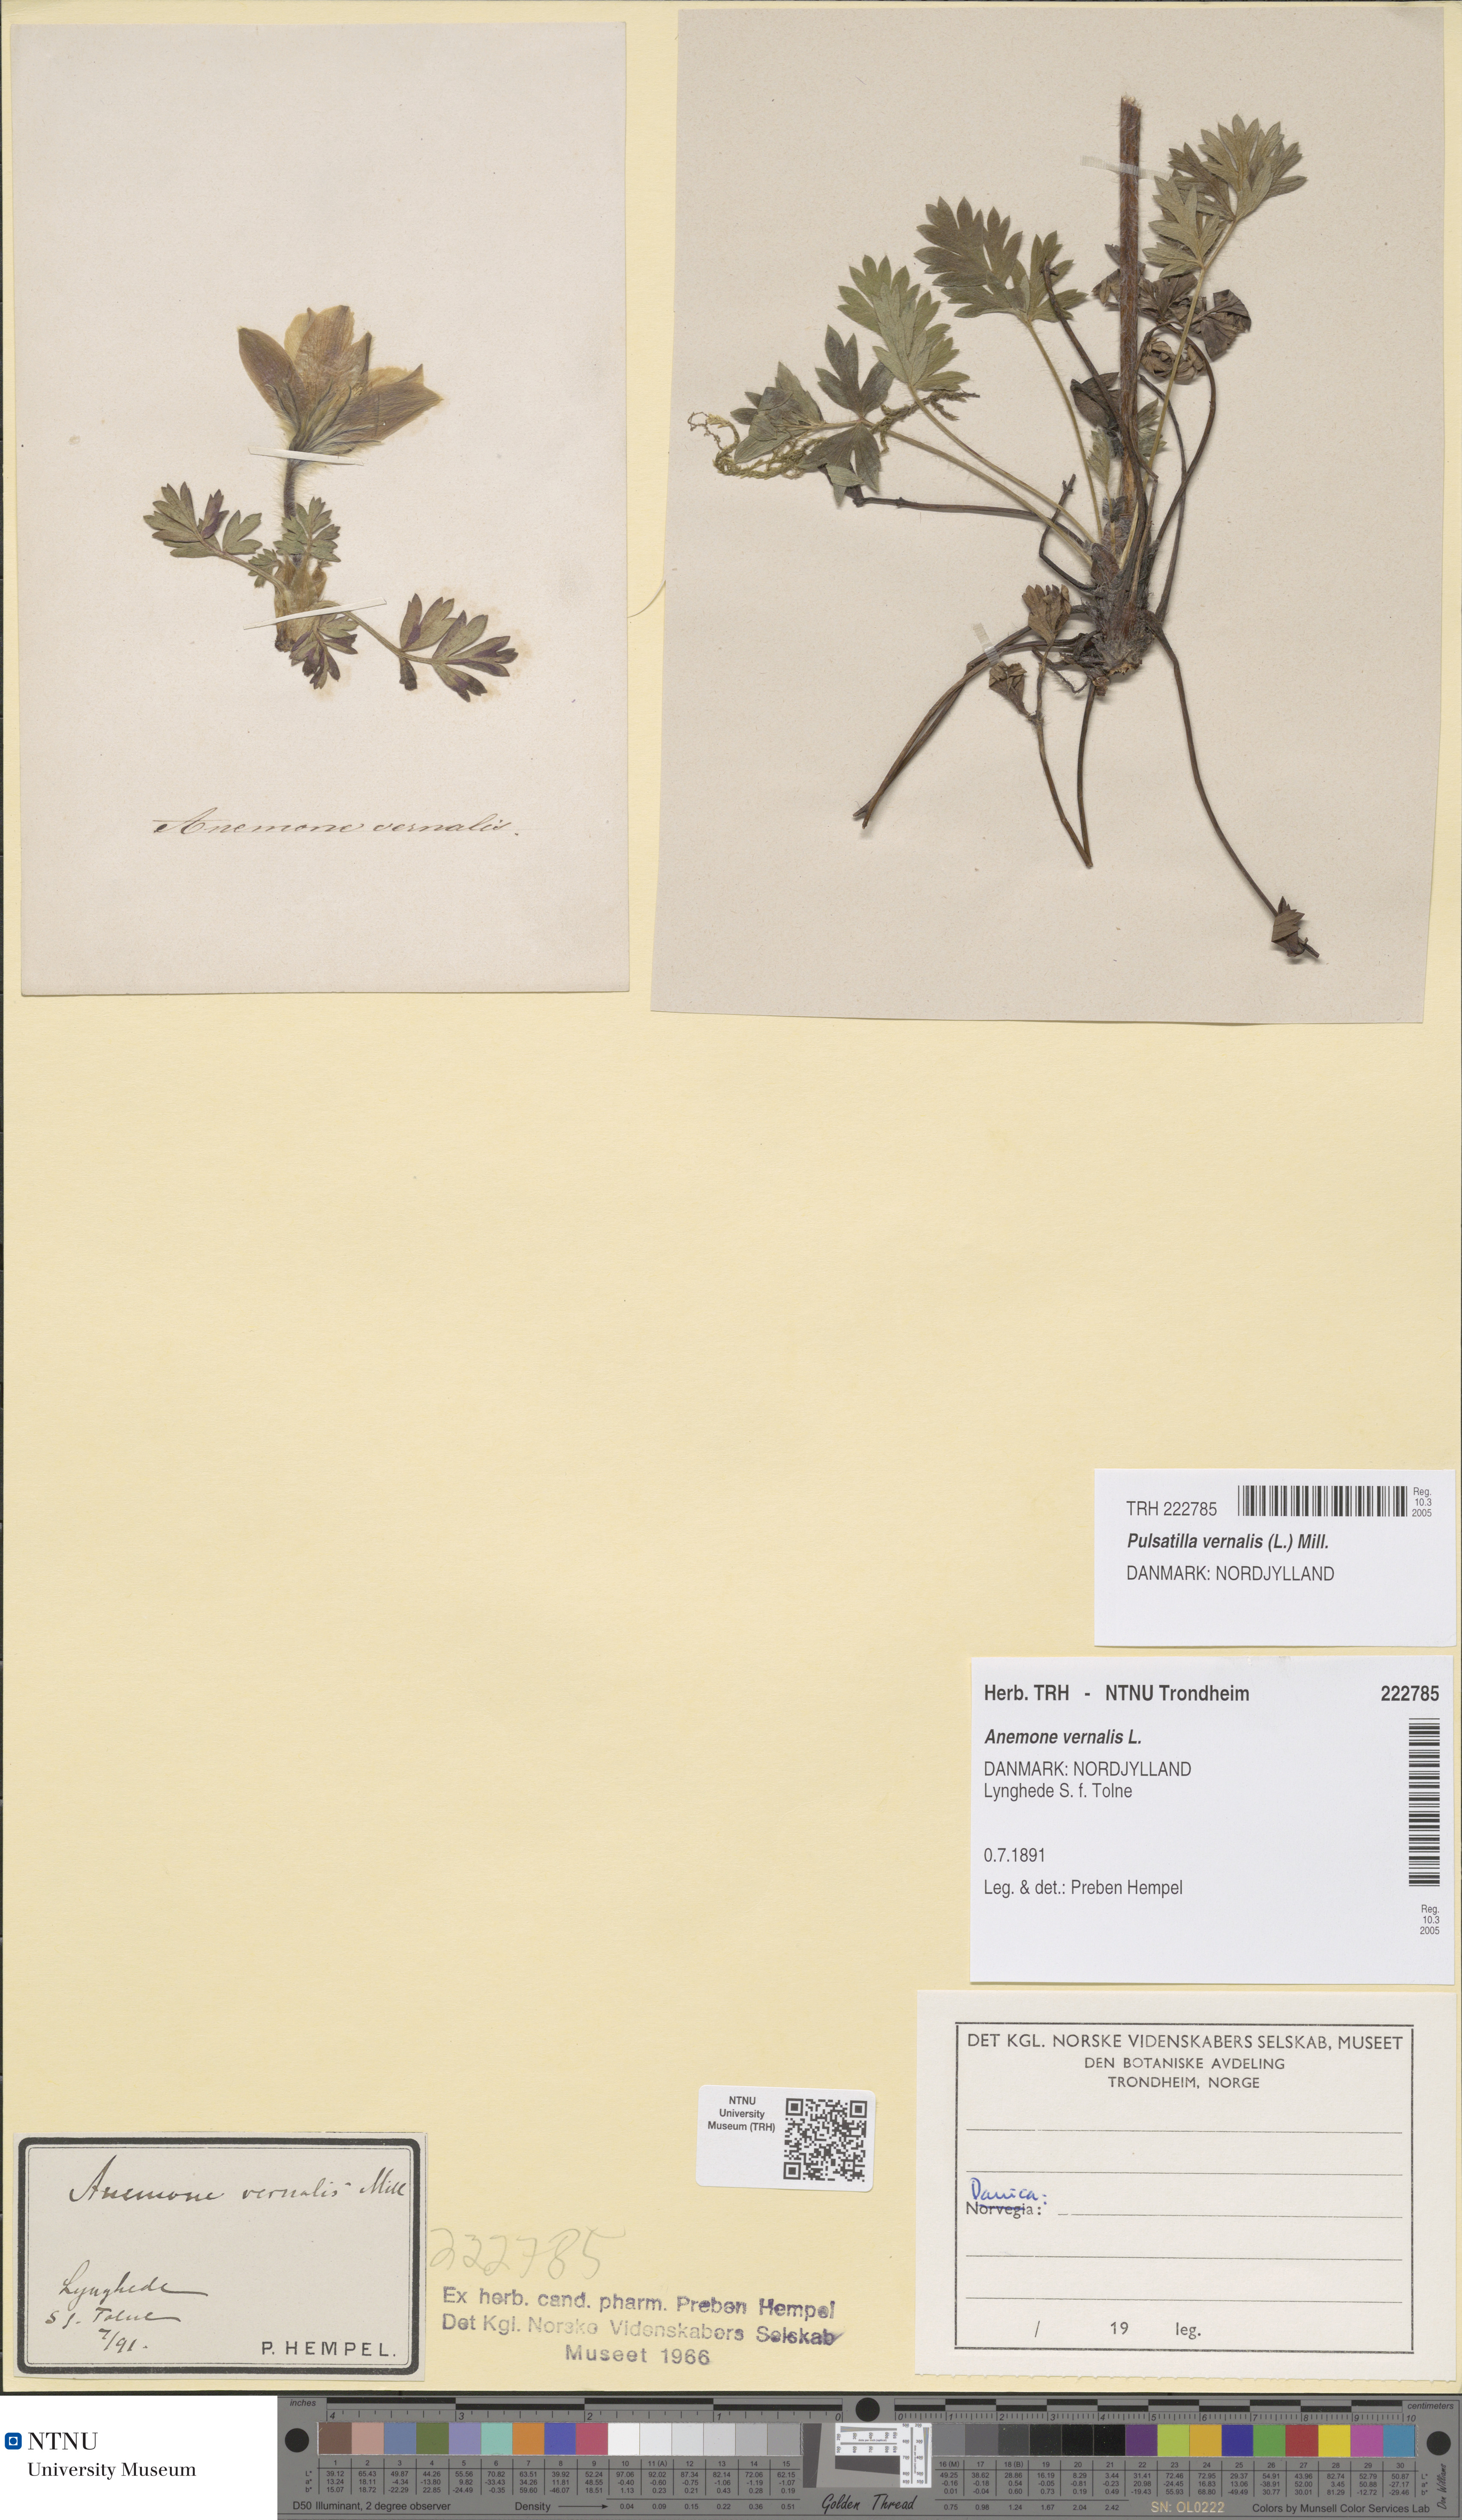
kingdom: Plantae
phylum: Tracheophyta
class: Magnoliopsida
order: Ranunculales
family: Ranunculaceae
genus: Pulsatilla
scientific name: Pulsatilla vernalis
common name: Spring pasque flower
